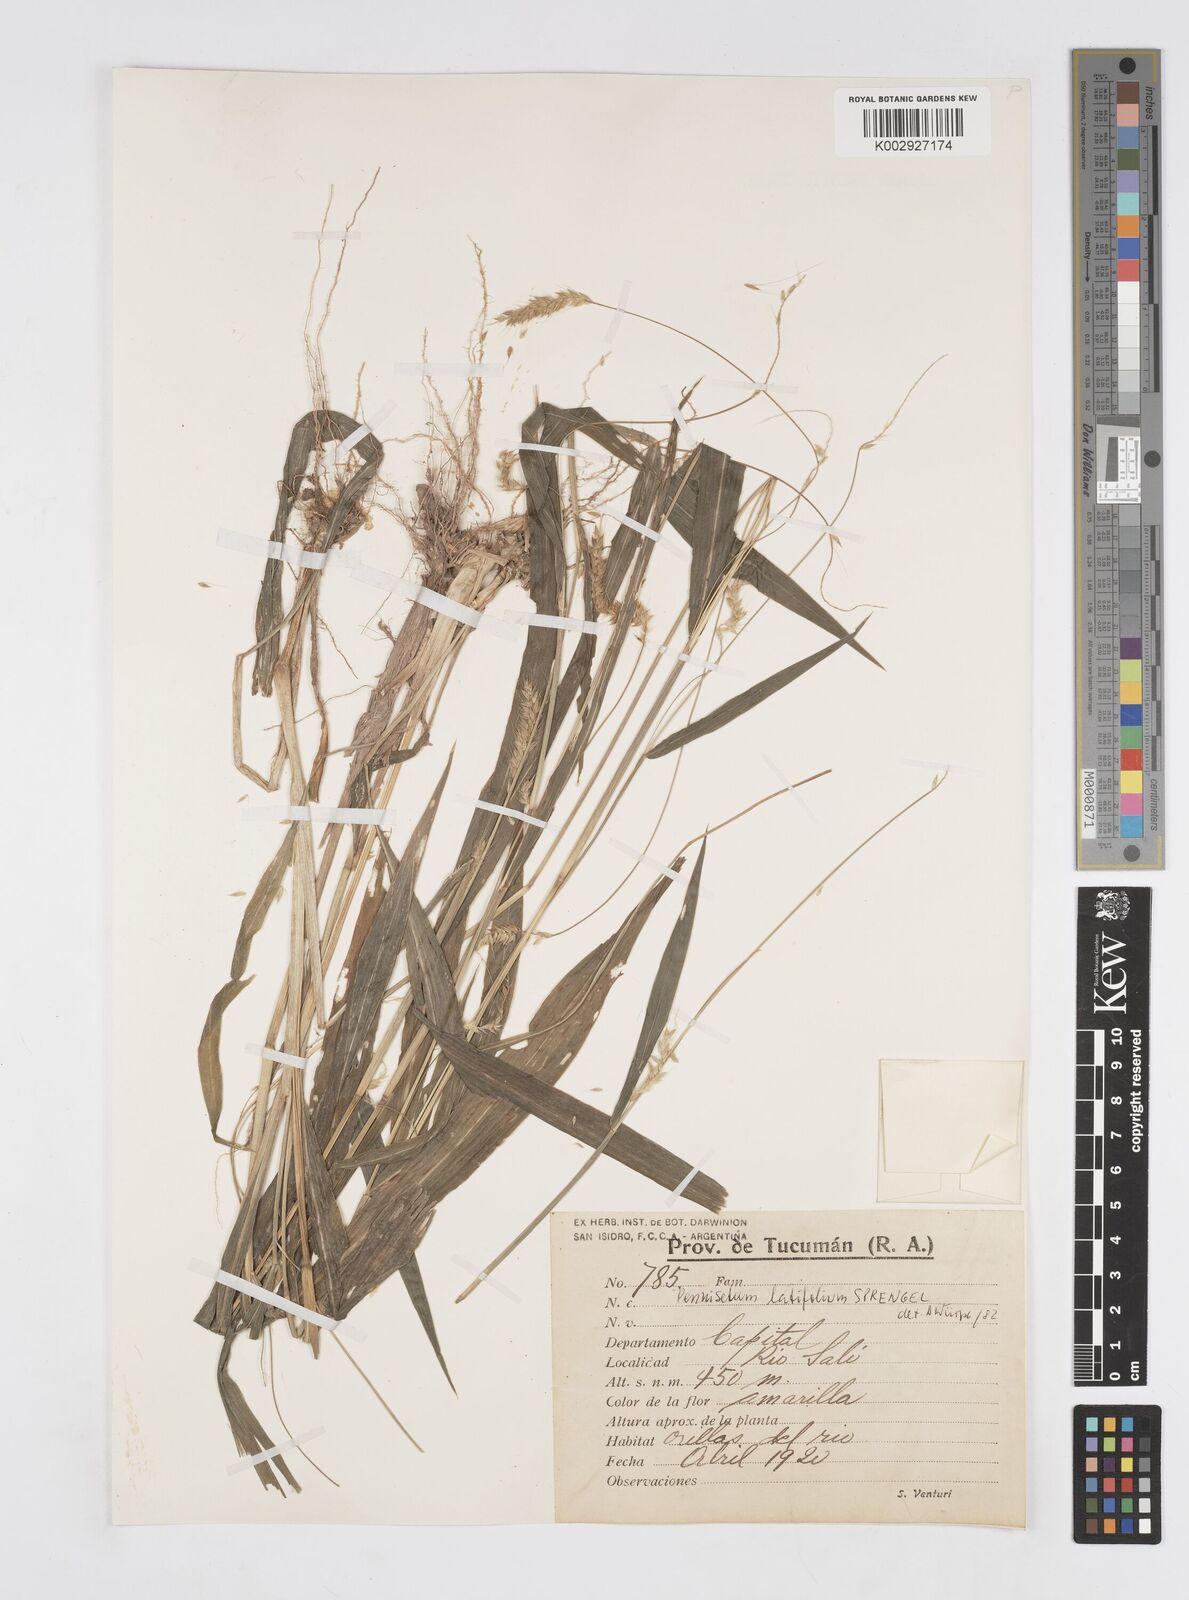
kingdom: Plantae
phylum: Tracheophyta
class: Liliopsida
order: Poales
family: Poaceae
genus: Cenchrus
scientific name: Cenchrus latifolius
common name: Sandbur
